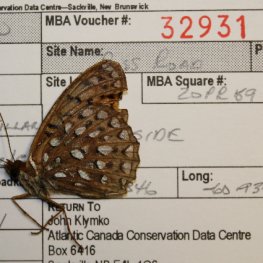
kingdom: Animalia
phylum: Arthropoda
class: Insecta
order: Lepidoptera
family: Nymphalidae
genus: Speyeria
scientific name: Speyeria cybele
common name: Great Spangled Fritillary
